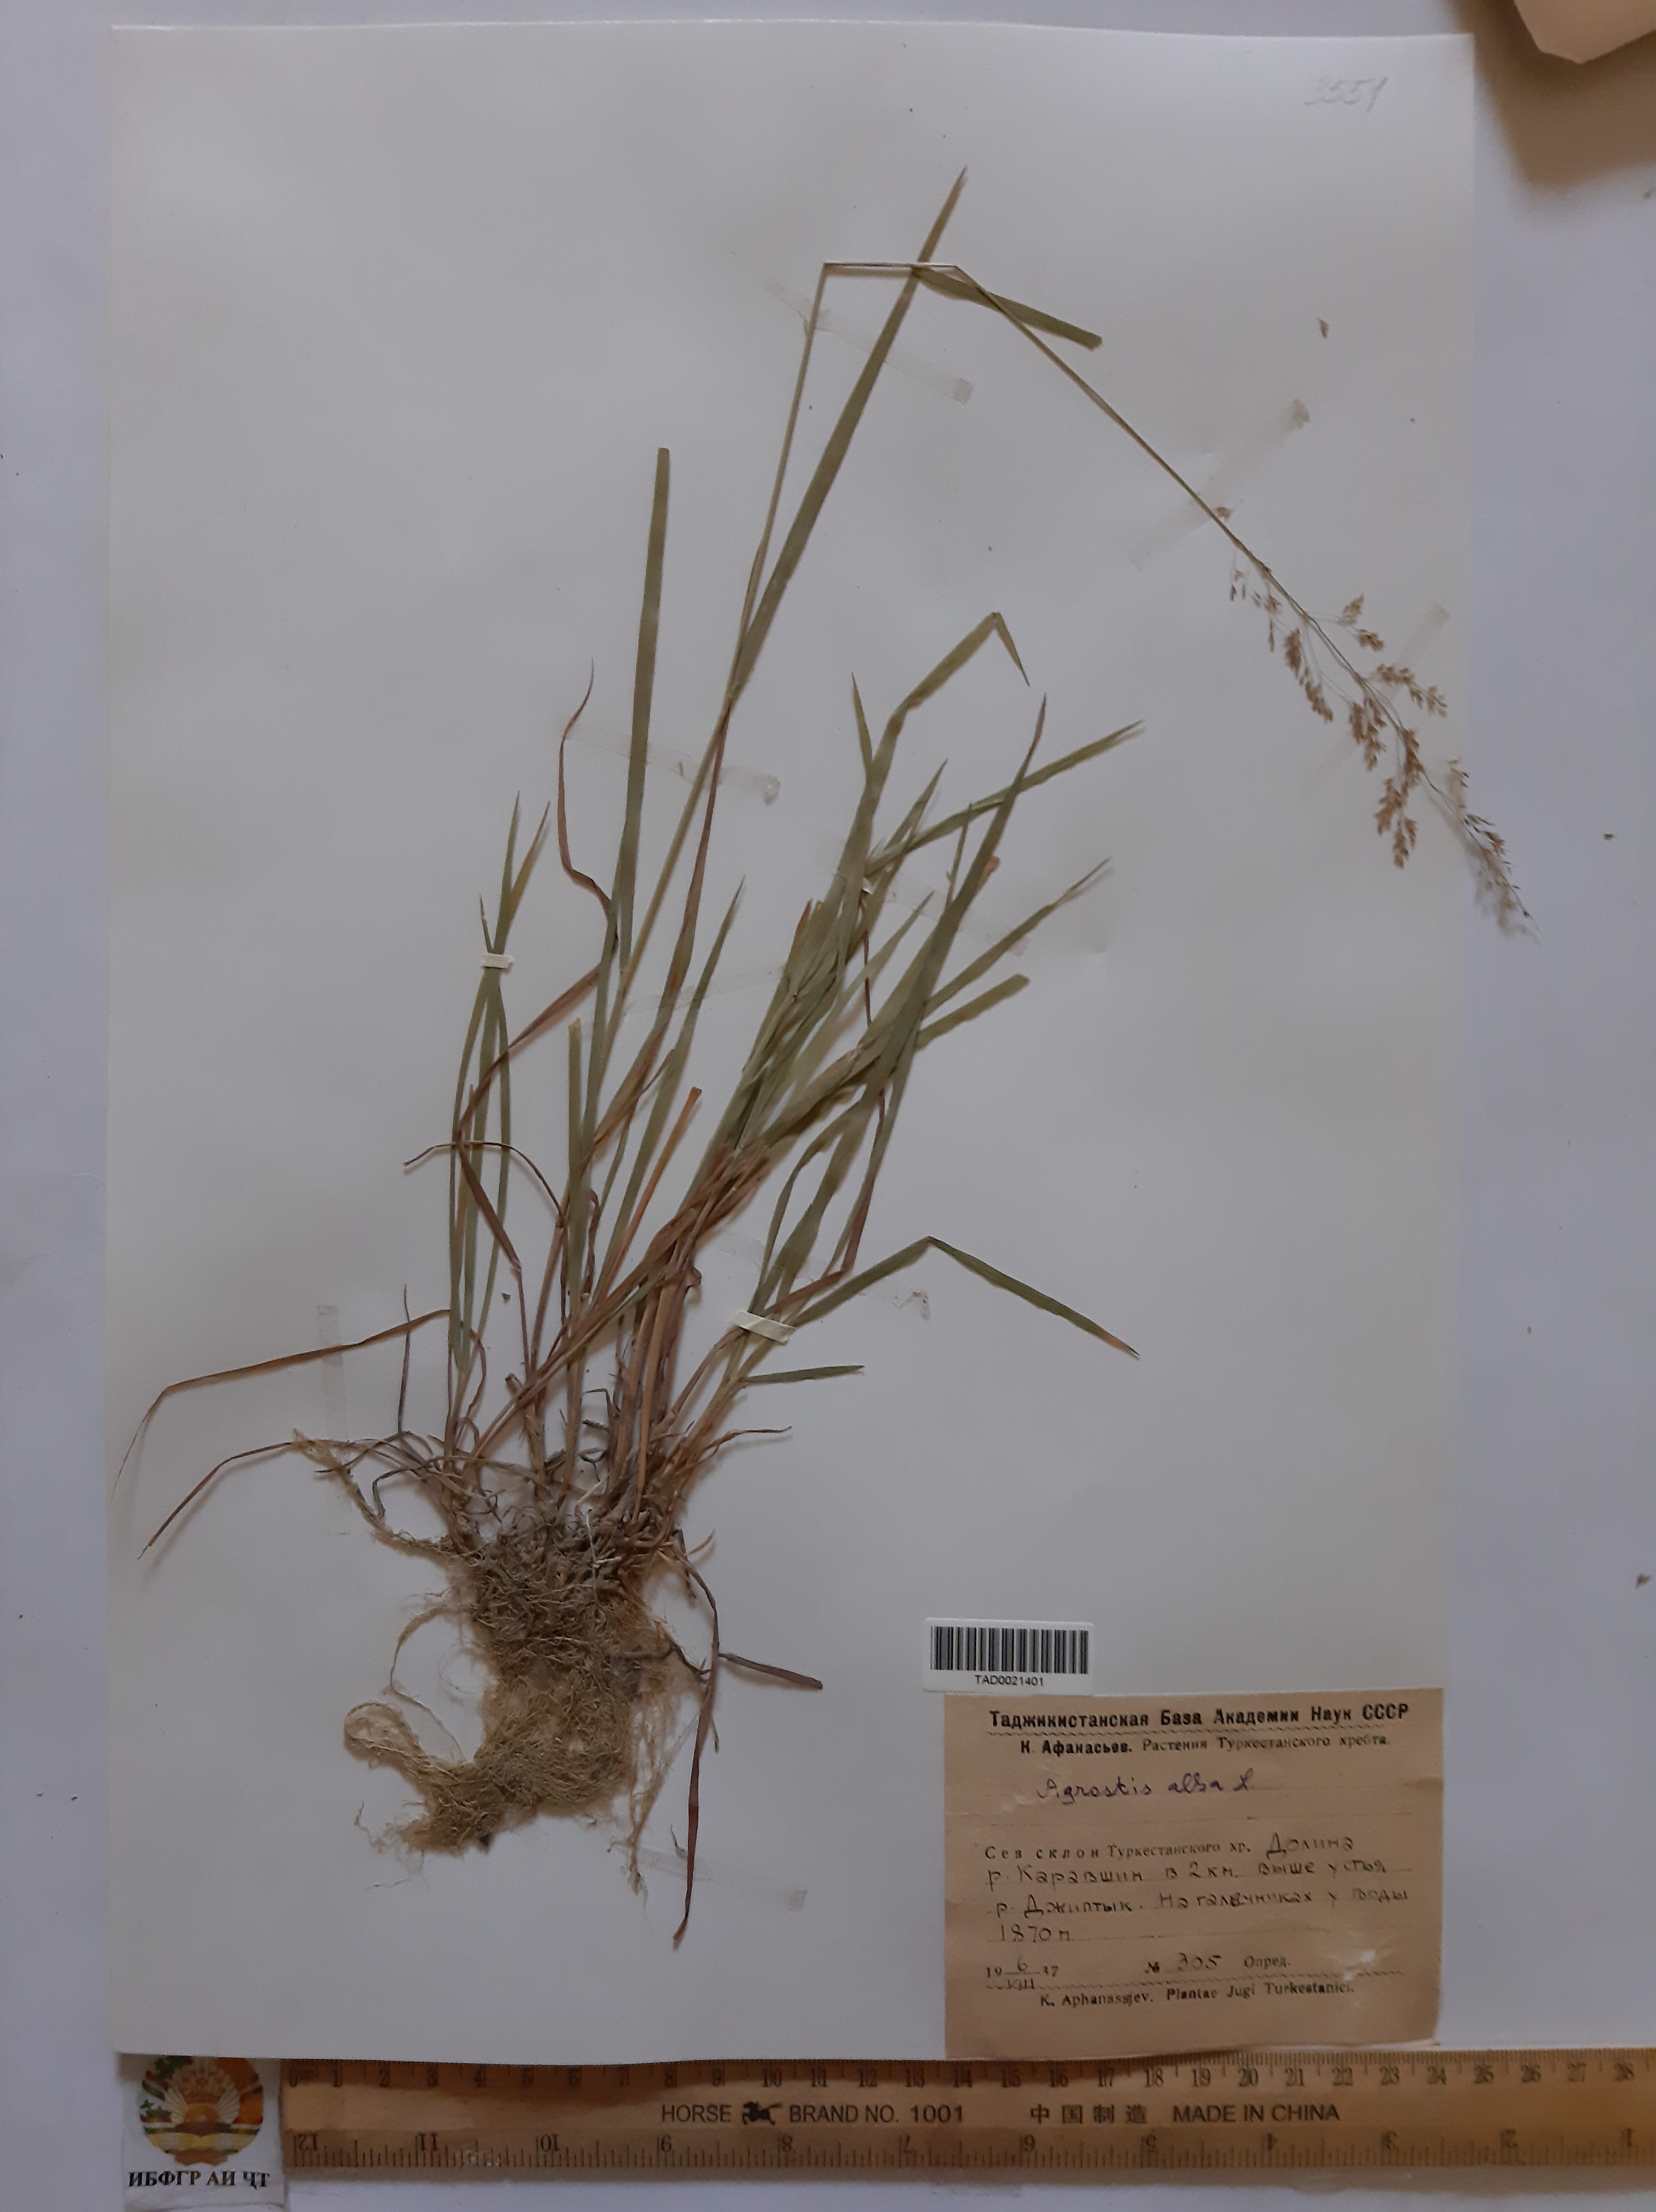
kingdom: Plantae
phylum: Tracheophyta
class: Liliopsida
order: Poales
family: Poaceae
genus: Poa
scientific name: Poa nemoralis
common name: Wood bluegrass
